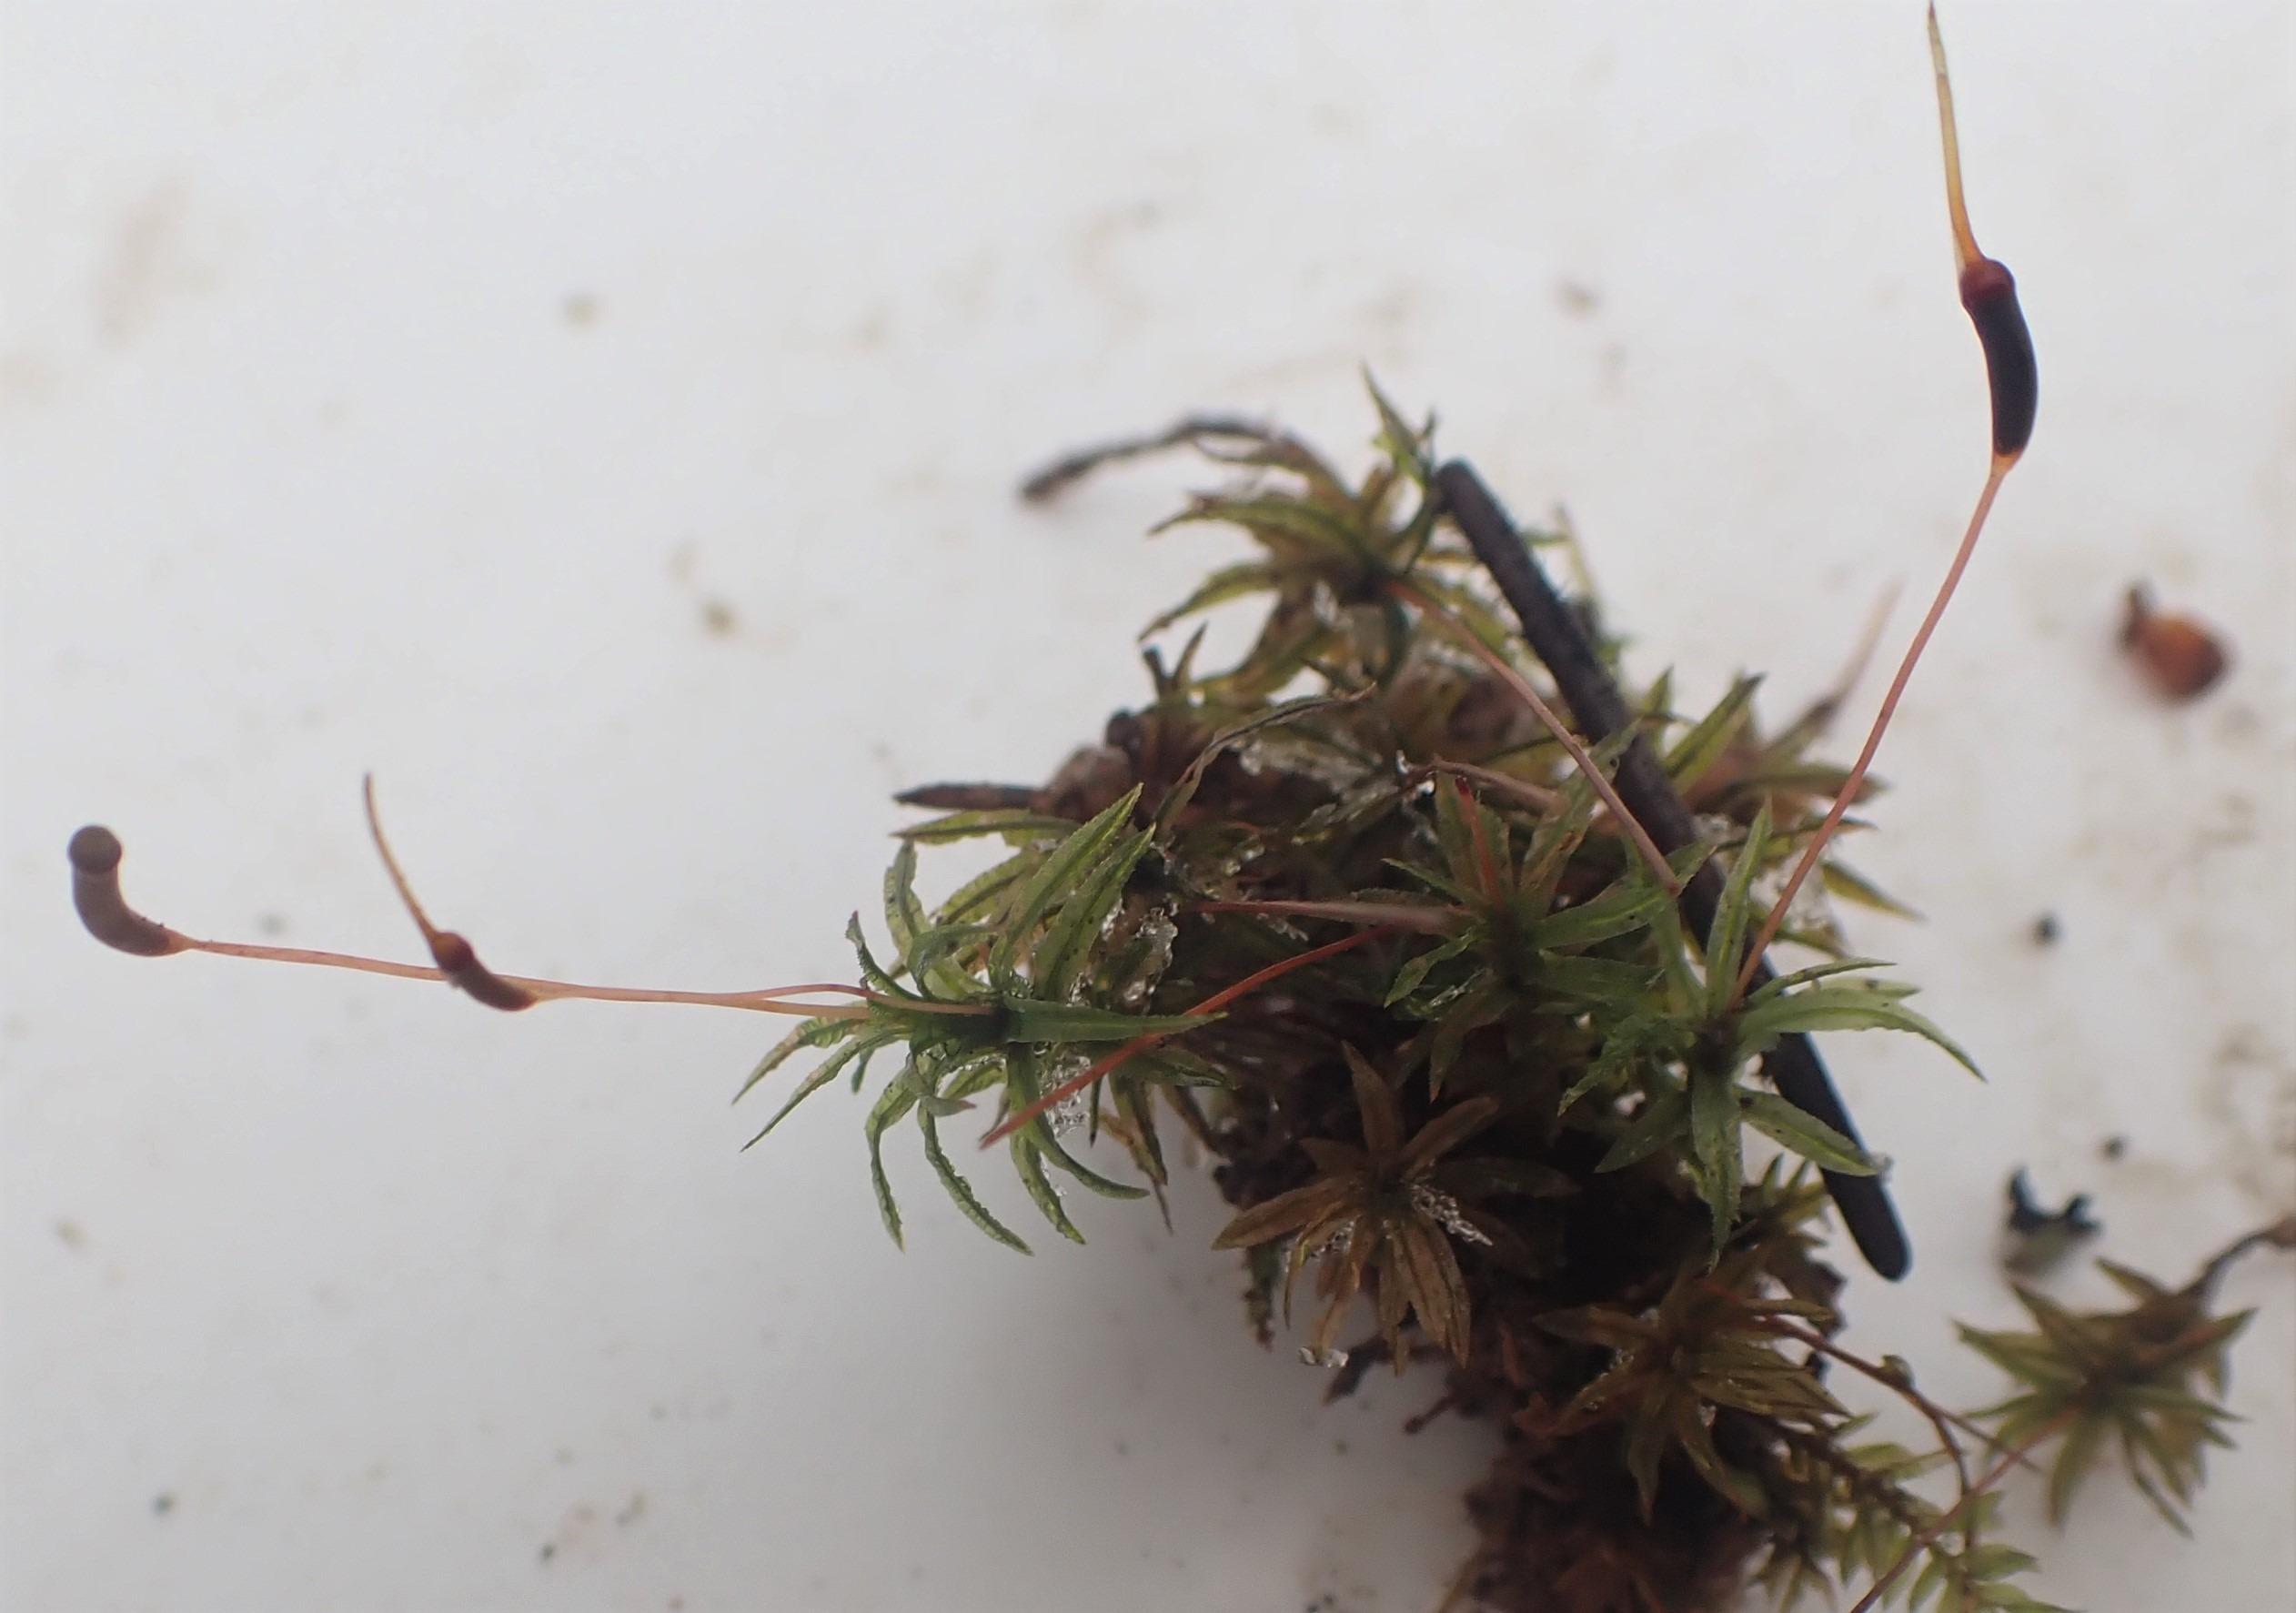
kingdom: Plantae
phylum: Bryophyta
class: Polytrichopsida
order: Polytrichales
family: Polytrichaceae
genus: Atrichum
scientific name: Atrichum undulatum
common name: Bølget katrinemos
